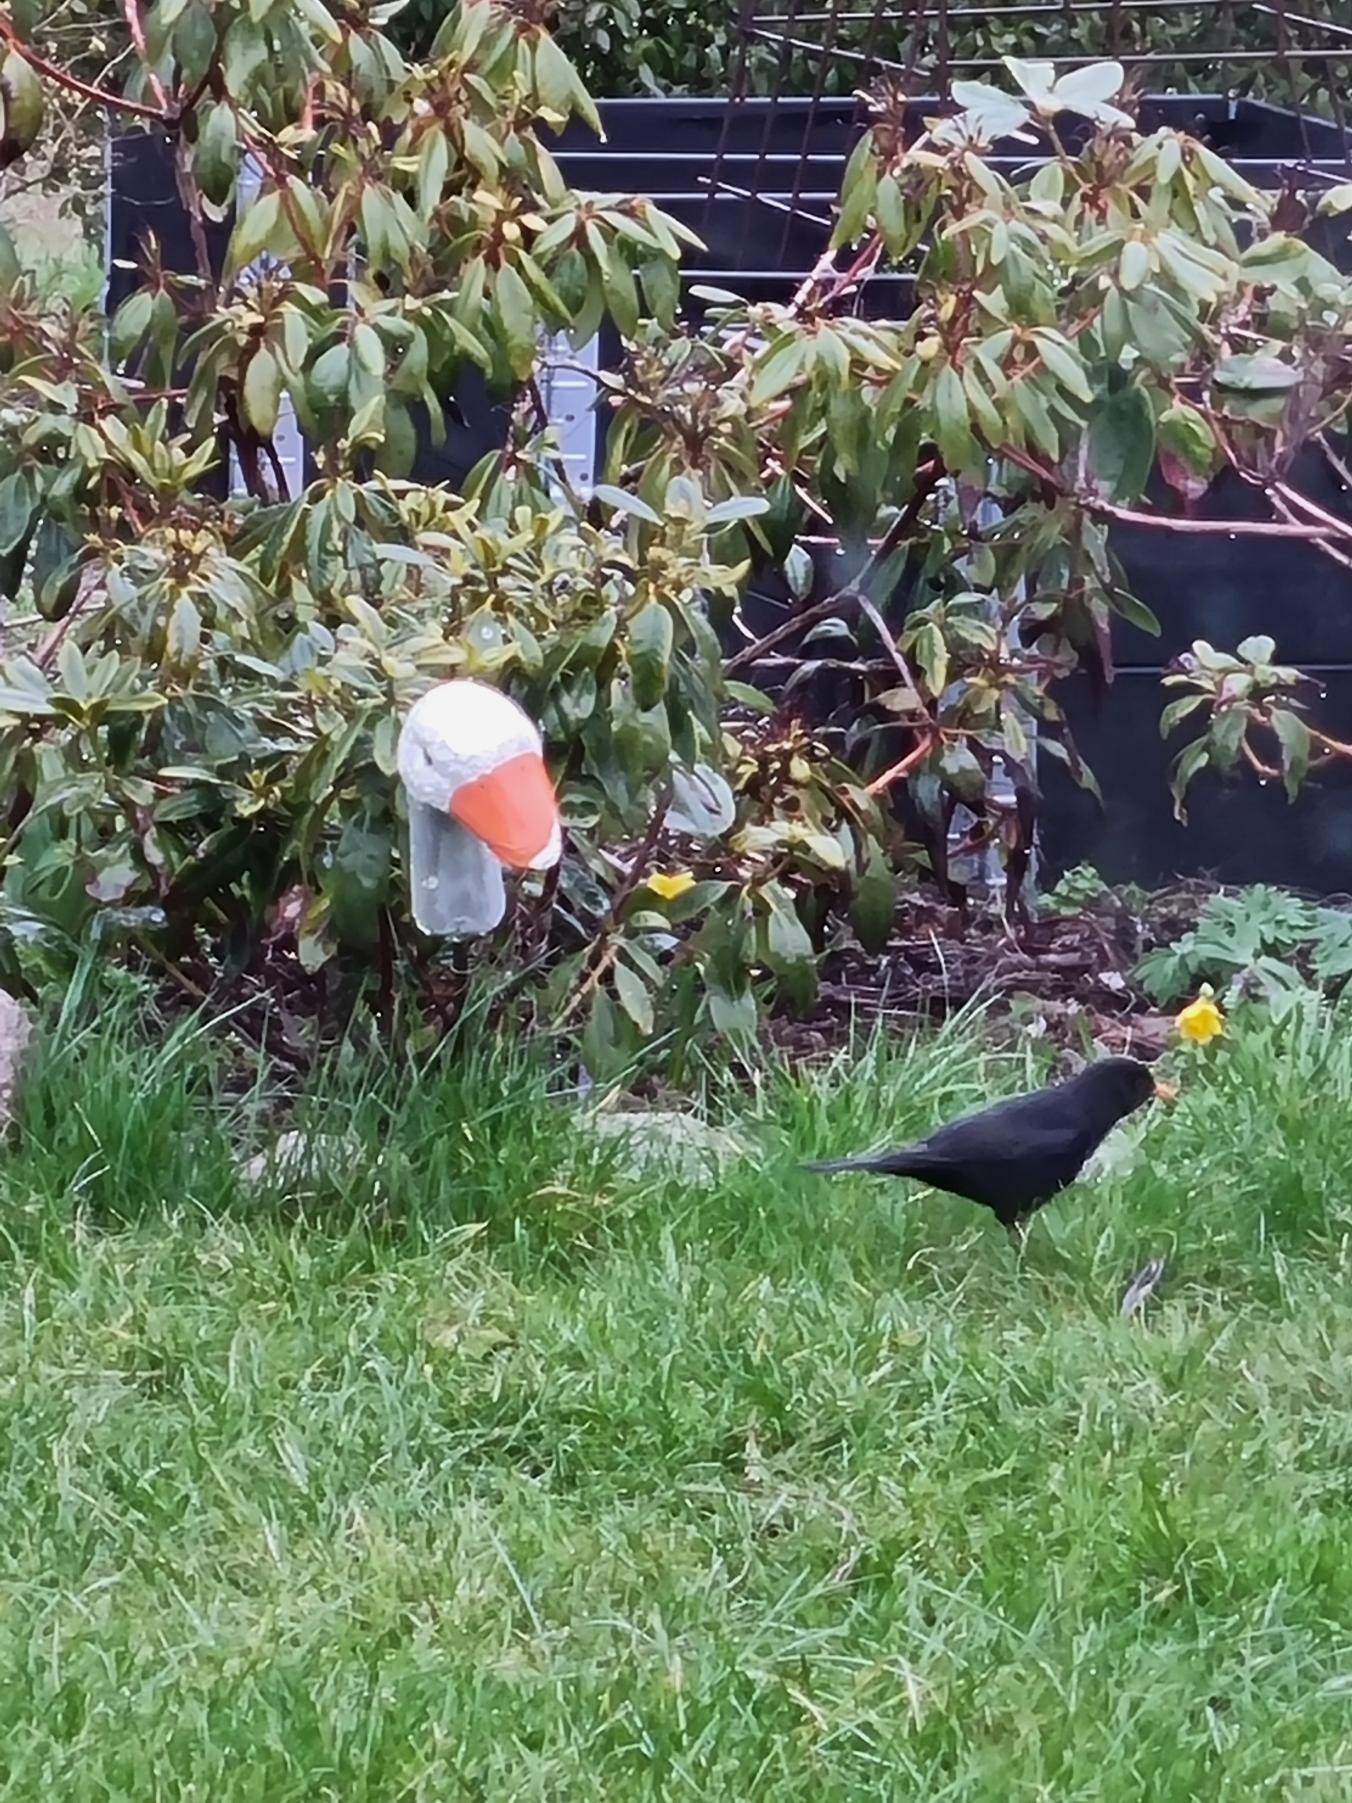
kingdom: Animalia
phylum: Chordata
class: Aves
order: Passeriformes
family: Turdidae
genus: Turdus
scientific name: Turdus merula
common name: Solsort
